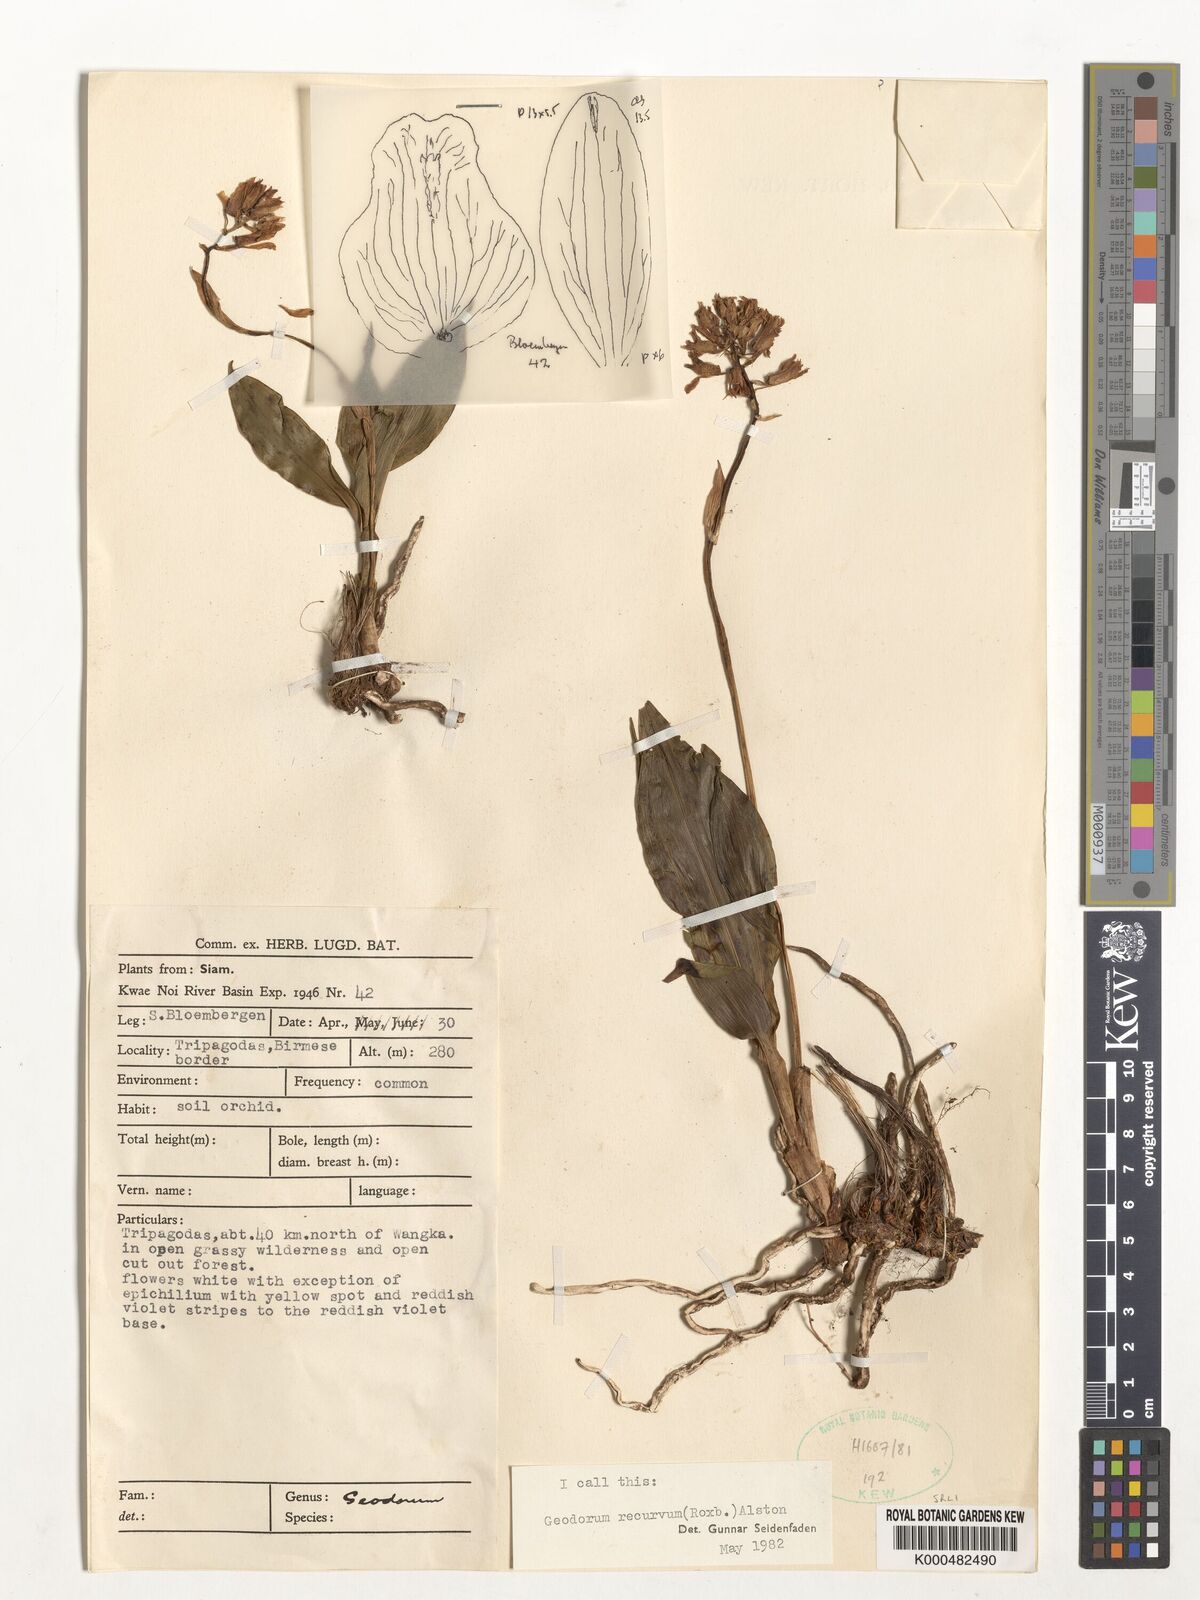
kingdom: Plantae
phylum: Tracheophyta
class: Liliopsida
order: Asparagales
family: Orchidaceae
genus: Eulophia
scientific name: Eulophia recurva
